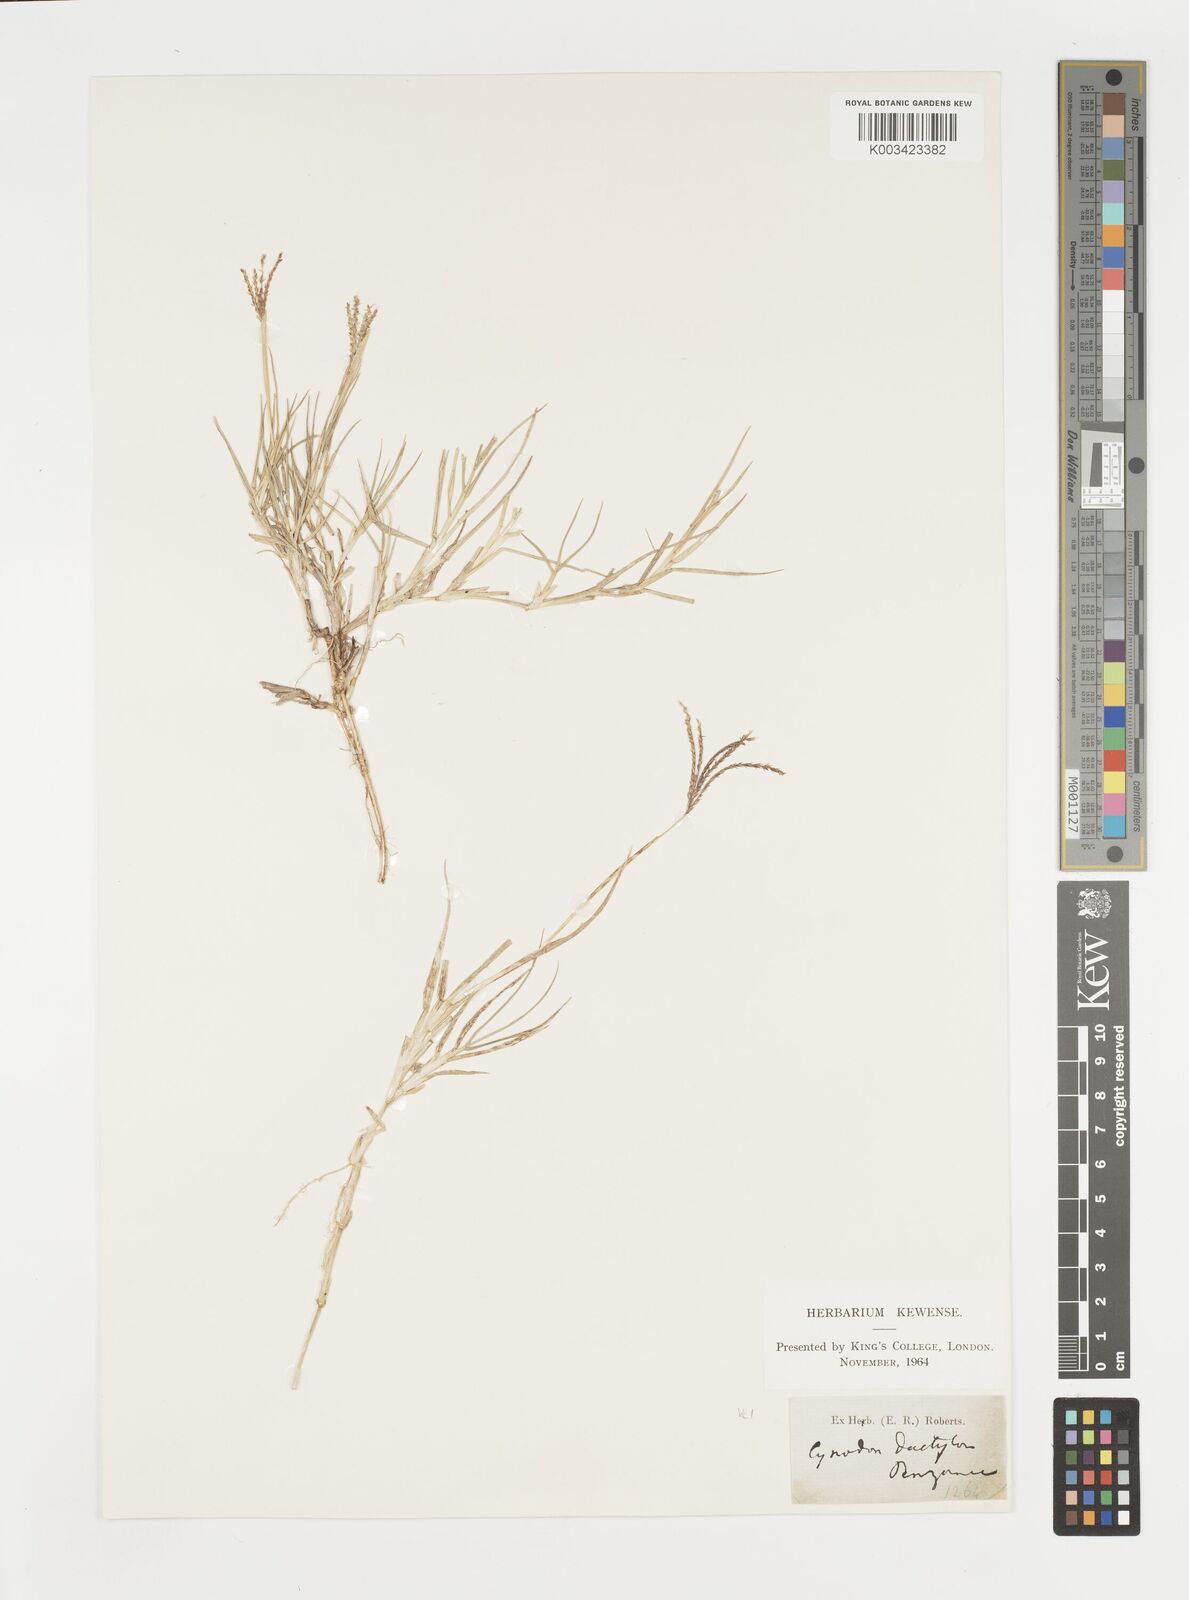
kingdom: Plantae
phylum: Tracheophyta
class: Liliopsida
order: Poales
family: Poaceae
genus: Cynodon
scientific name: Cynodon dactylon
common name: Bermuda grass
